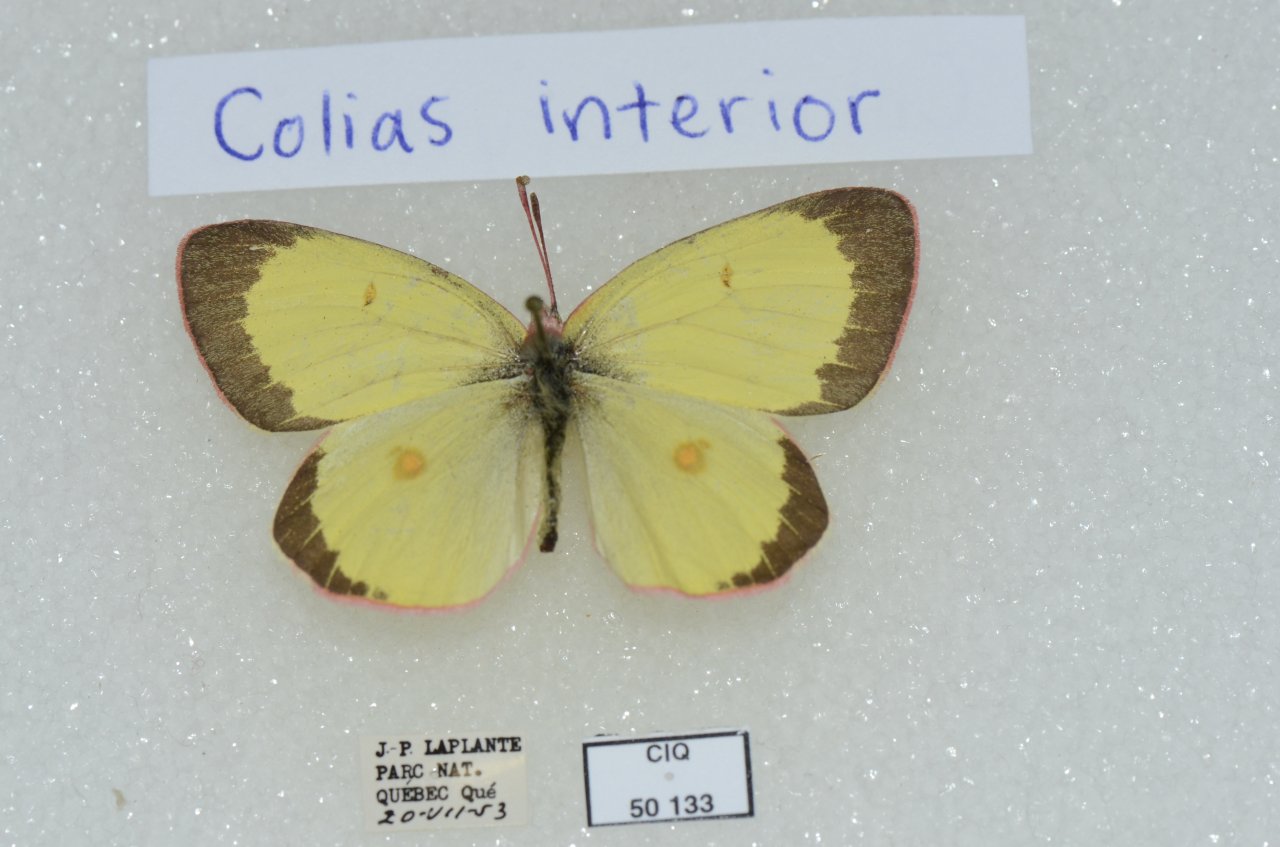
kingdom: Animalia
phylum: Arthropoda
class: Insecta
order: Lepidoptera
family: Pieridae
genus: Colias
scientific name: Colias interior
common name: Pink-edged Sulphur
